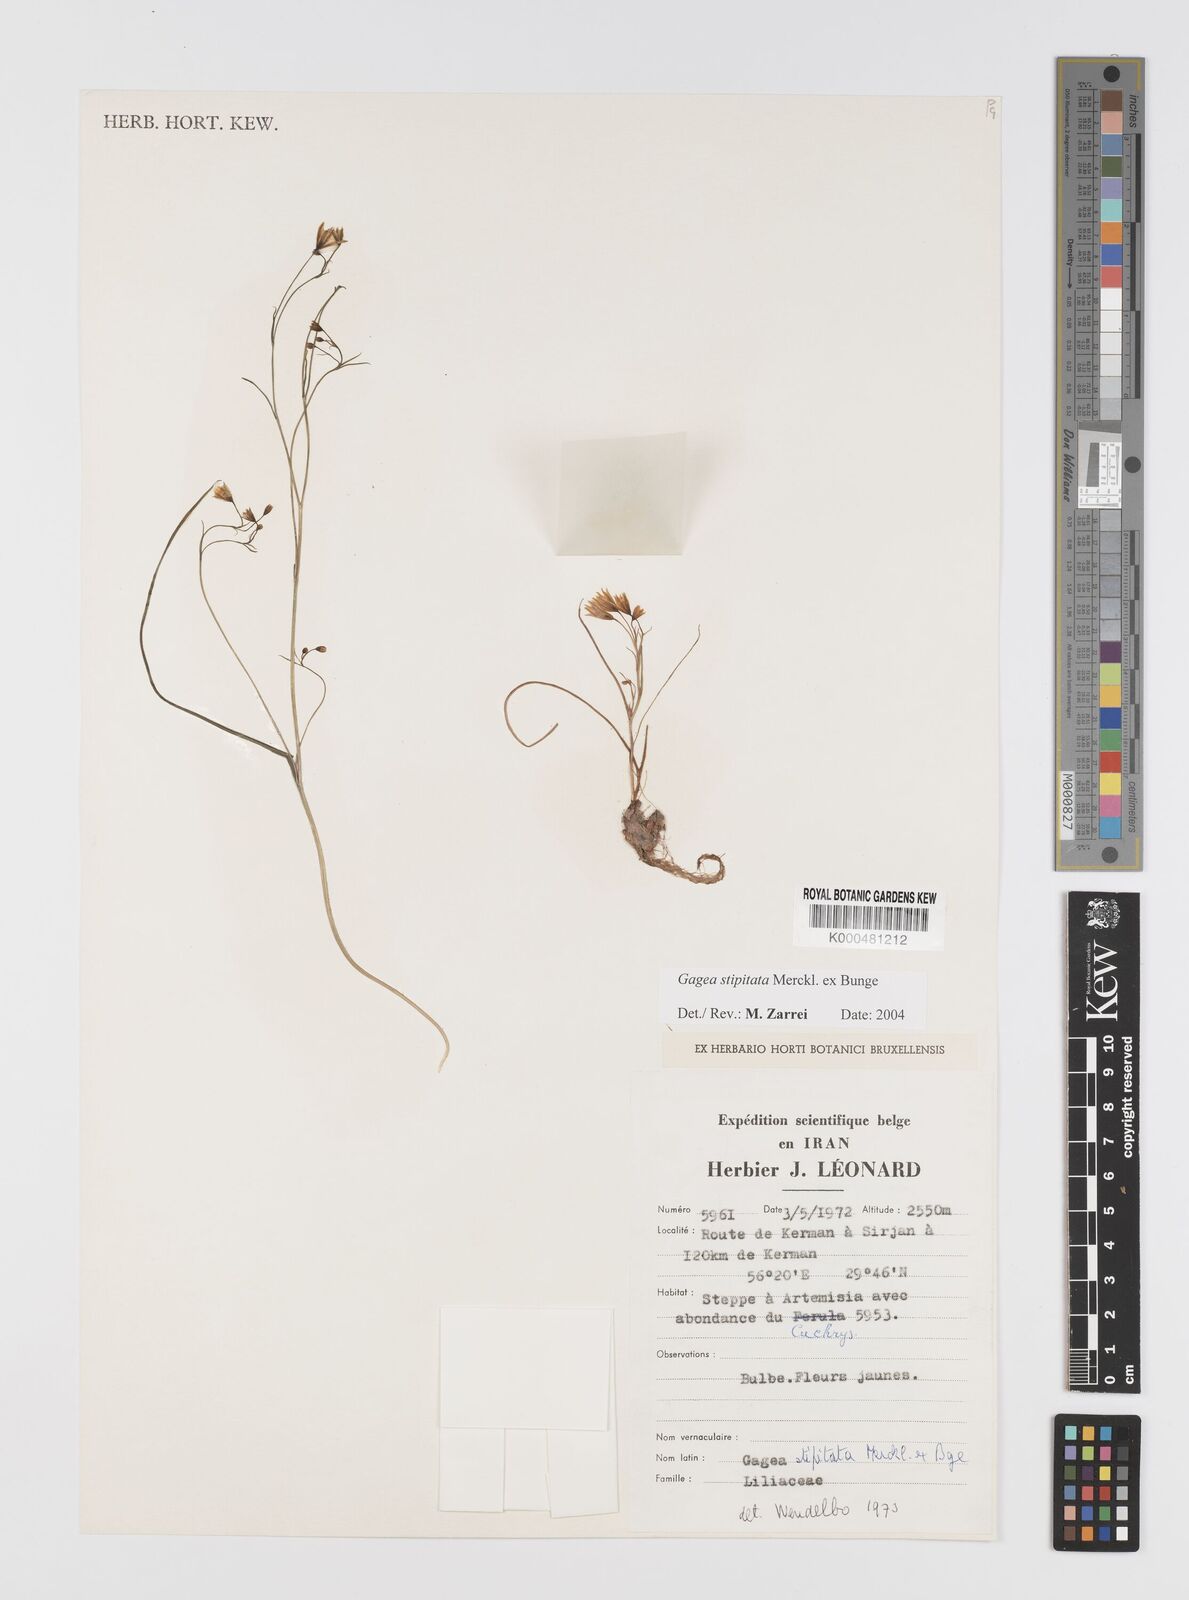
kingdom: Plantae
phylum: Tracheophyta
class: Liliopsida
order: Liliales
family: Liliaceae
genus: Gagea
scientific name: Gagea kunawurensis
